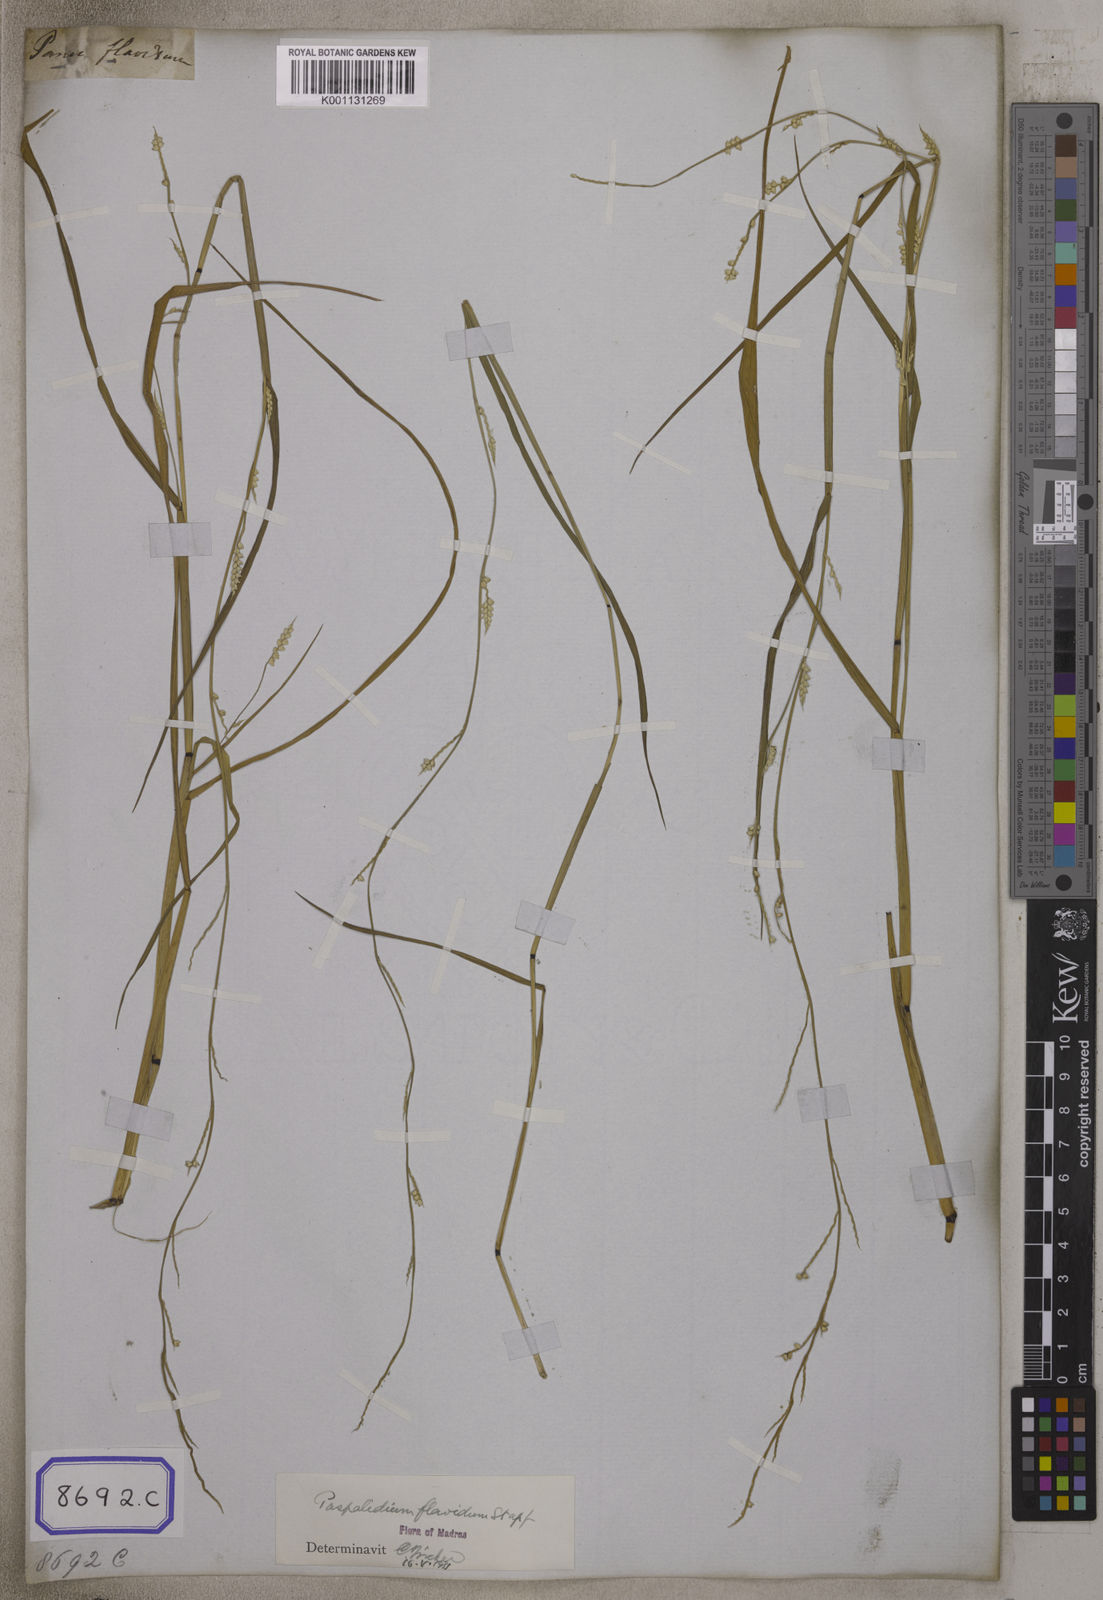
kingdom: Plantae
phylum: Tracheophyta
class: Liliopsida
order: Poales
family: Poaceae
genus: Setaria
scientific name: Setaria flavida
